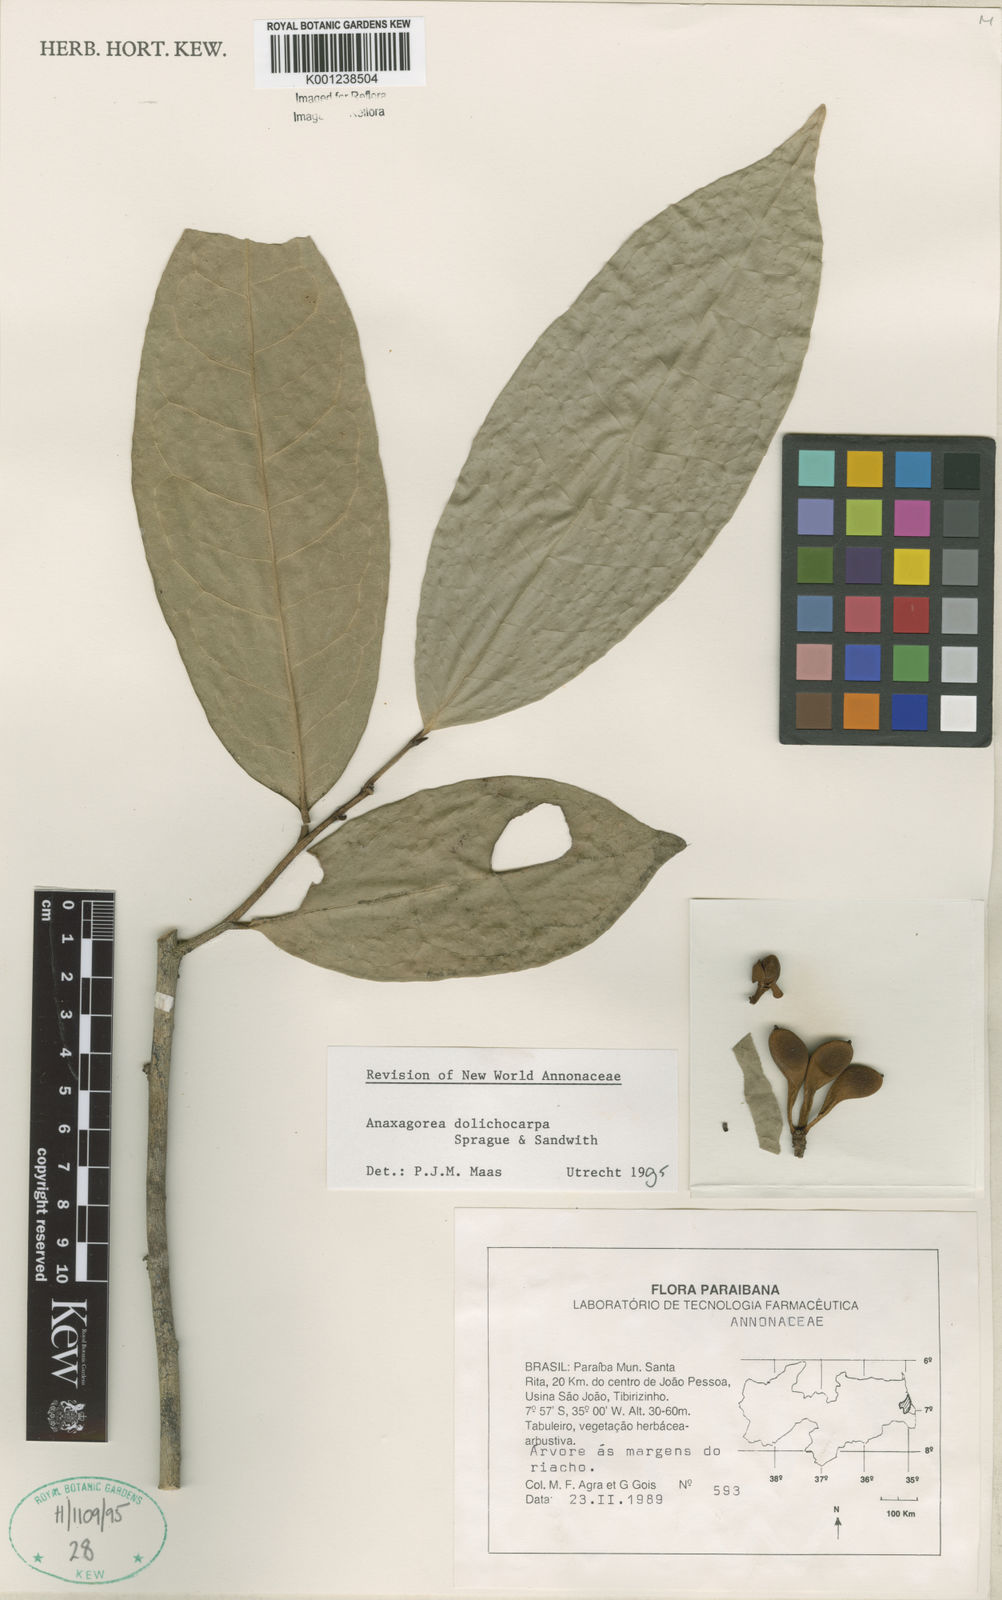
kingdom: Plantae
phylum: Tracheophyta
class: Magnoliopsida
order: Magnoliales
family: Annonaceae
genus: Anaxagorea
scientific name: Anaxagorea dolichocarpa
